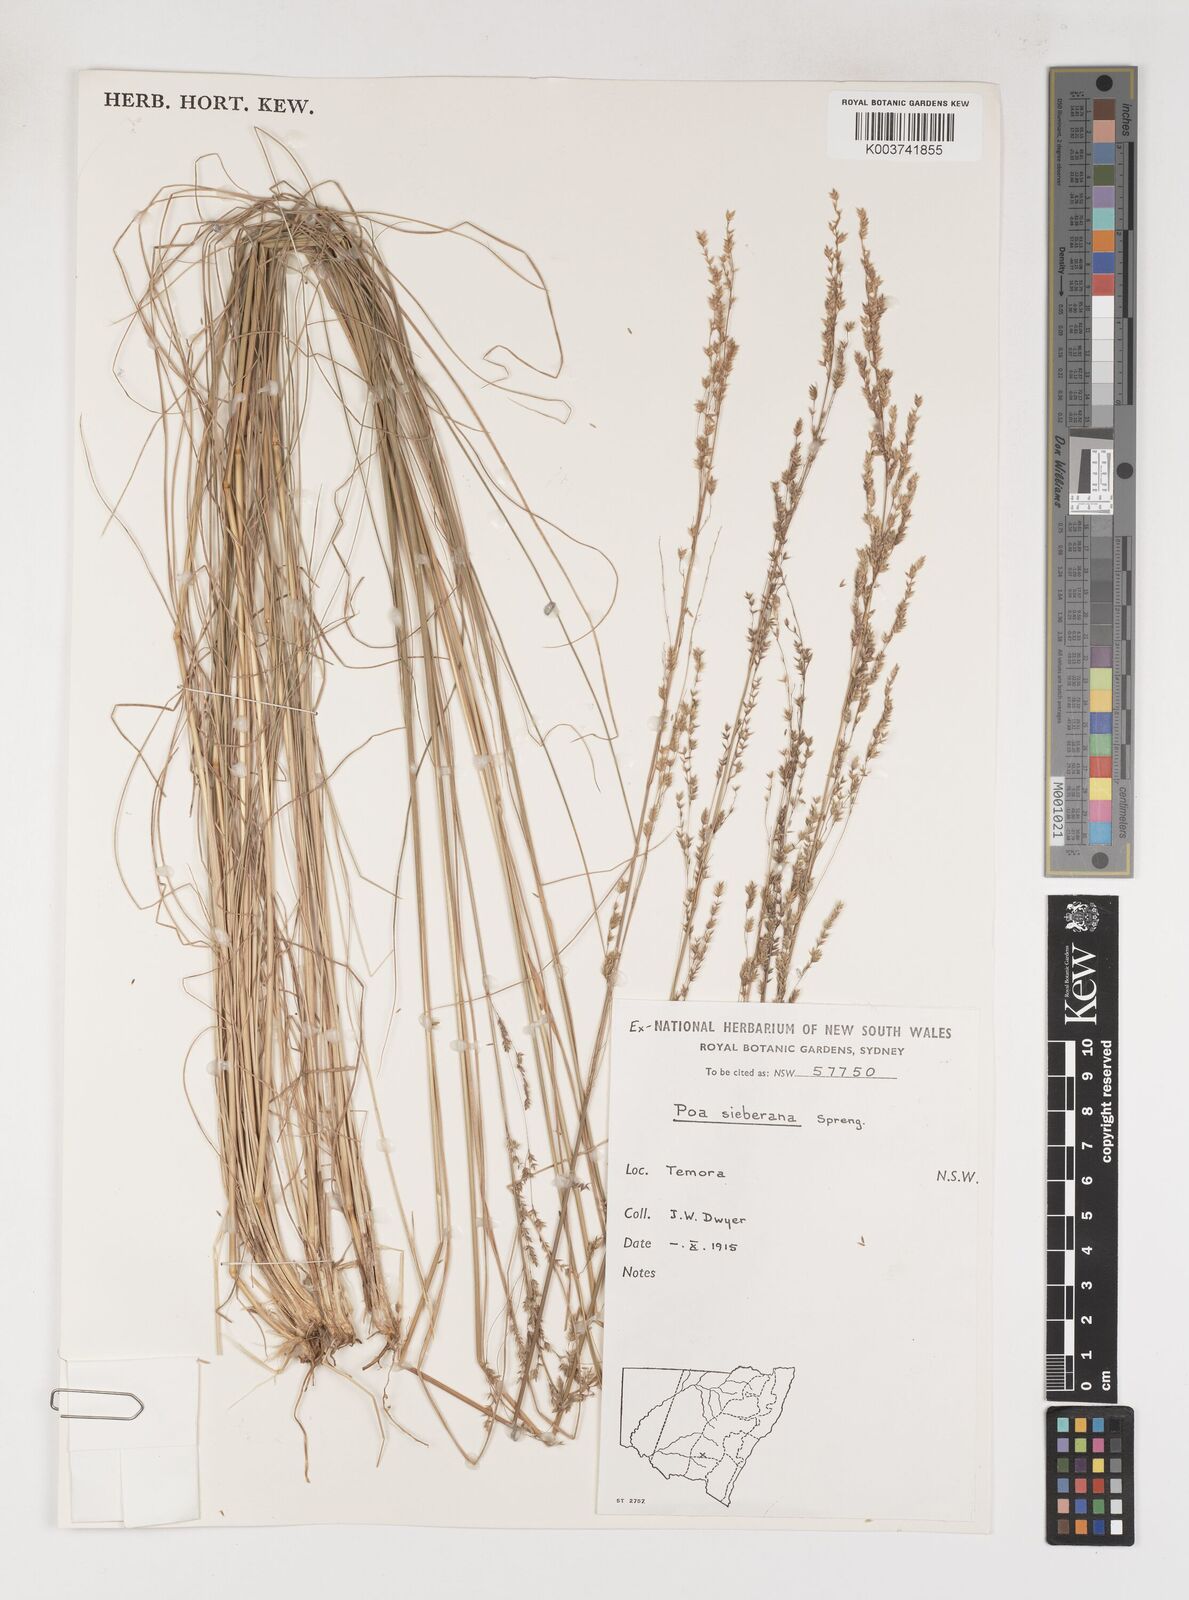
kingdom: Plantae
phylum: Tracheophyta
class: Liliopsida
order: Poales
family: Poaceae
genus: Poa
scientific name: Poa sieberiana
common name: Tussock poa
